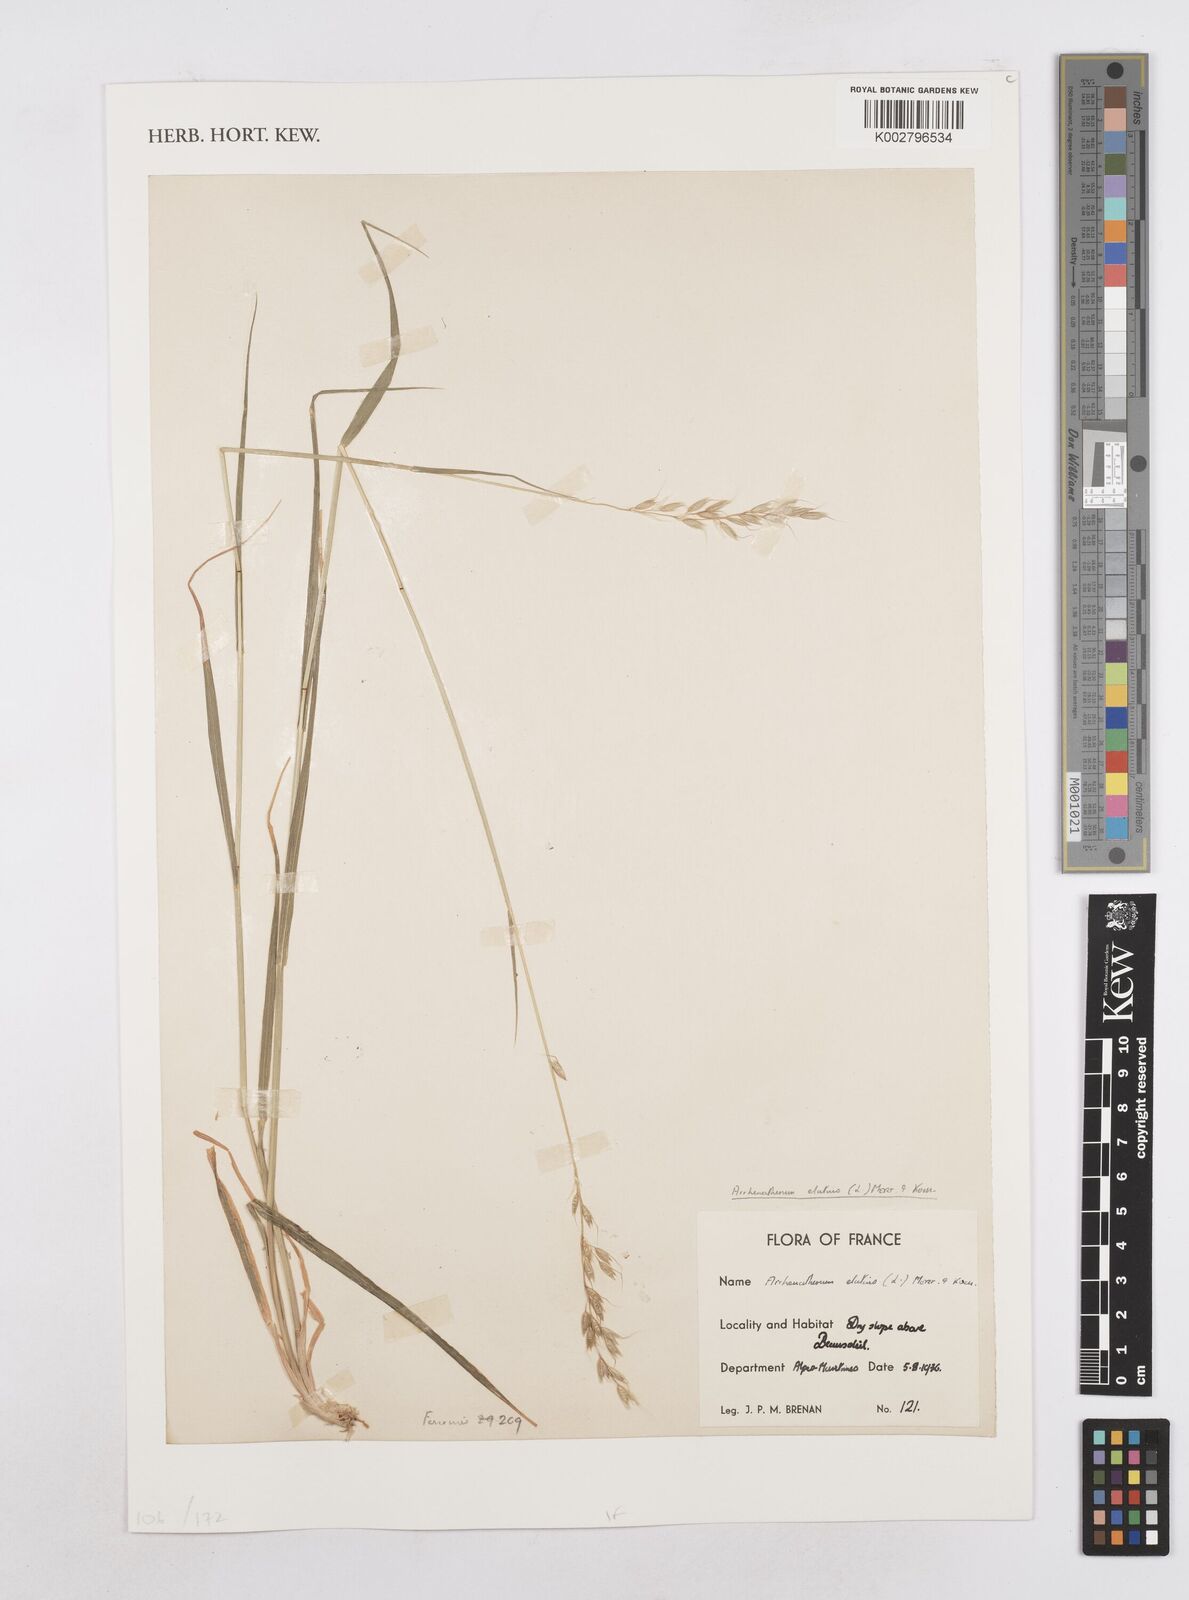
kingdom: Plantae
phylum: Tracheophyta
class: Liliopsida
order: Poales
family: Poaceae
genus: Arrhenatherum
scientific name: Arrhenatherum elatius
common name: Tall oatgrass
